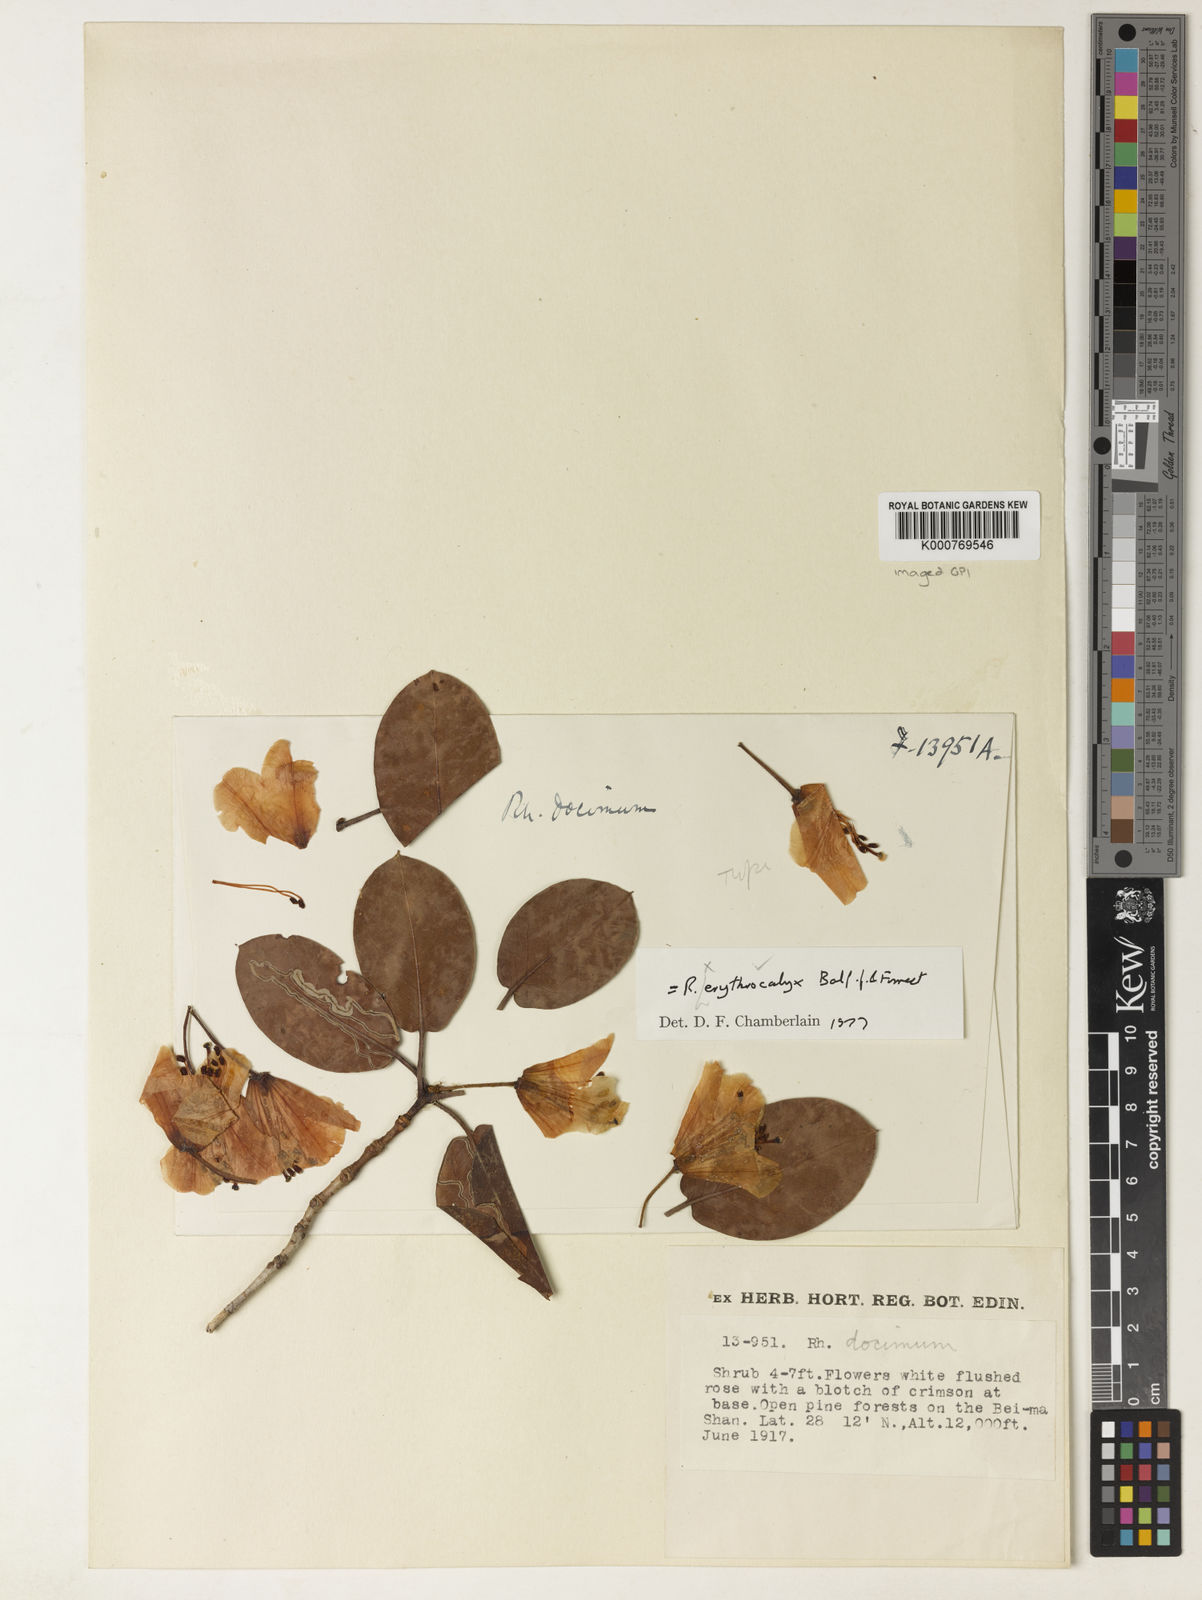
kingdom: Plantae
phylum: Tracheophyta
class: Magnoliopsida
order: Ericales
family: Ericaceae
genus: Rhododendron
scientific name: Rhododendron erythrocalyx
